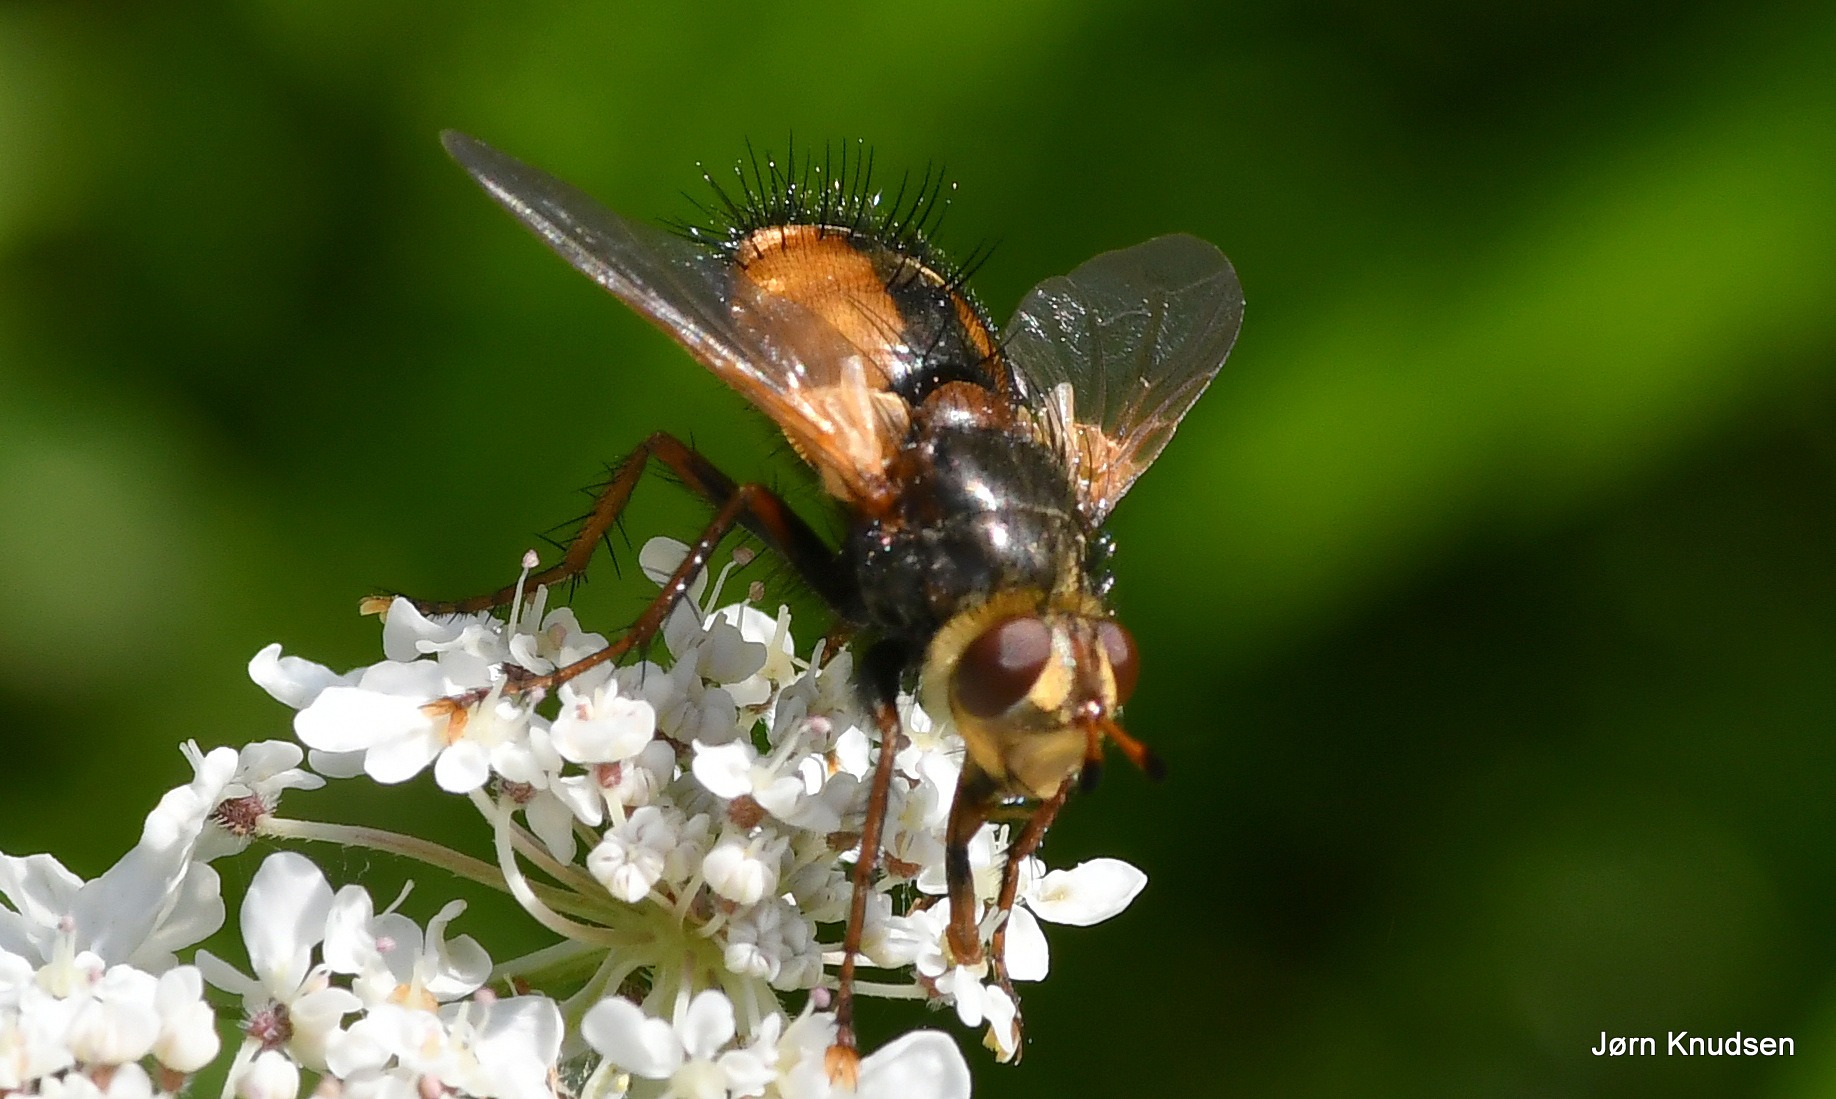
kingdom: Animalia
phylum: Arthropoda
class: Insecta
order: Diptera
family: Tachinidae
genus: Tachina
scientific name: Tachina fera
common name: Mellemfluen oskar
